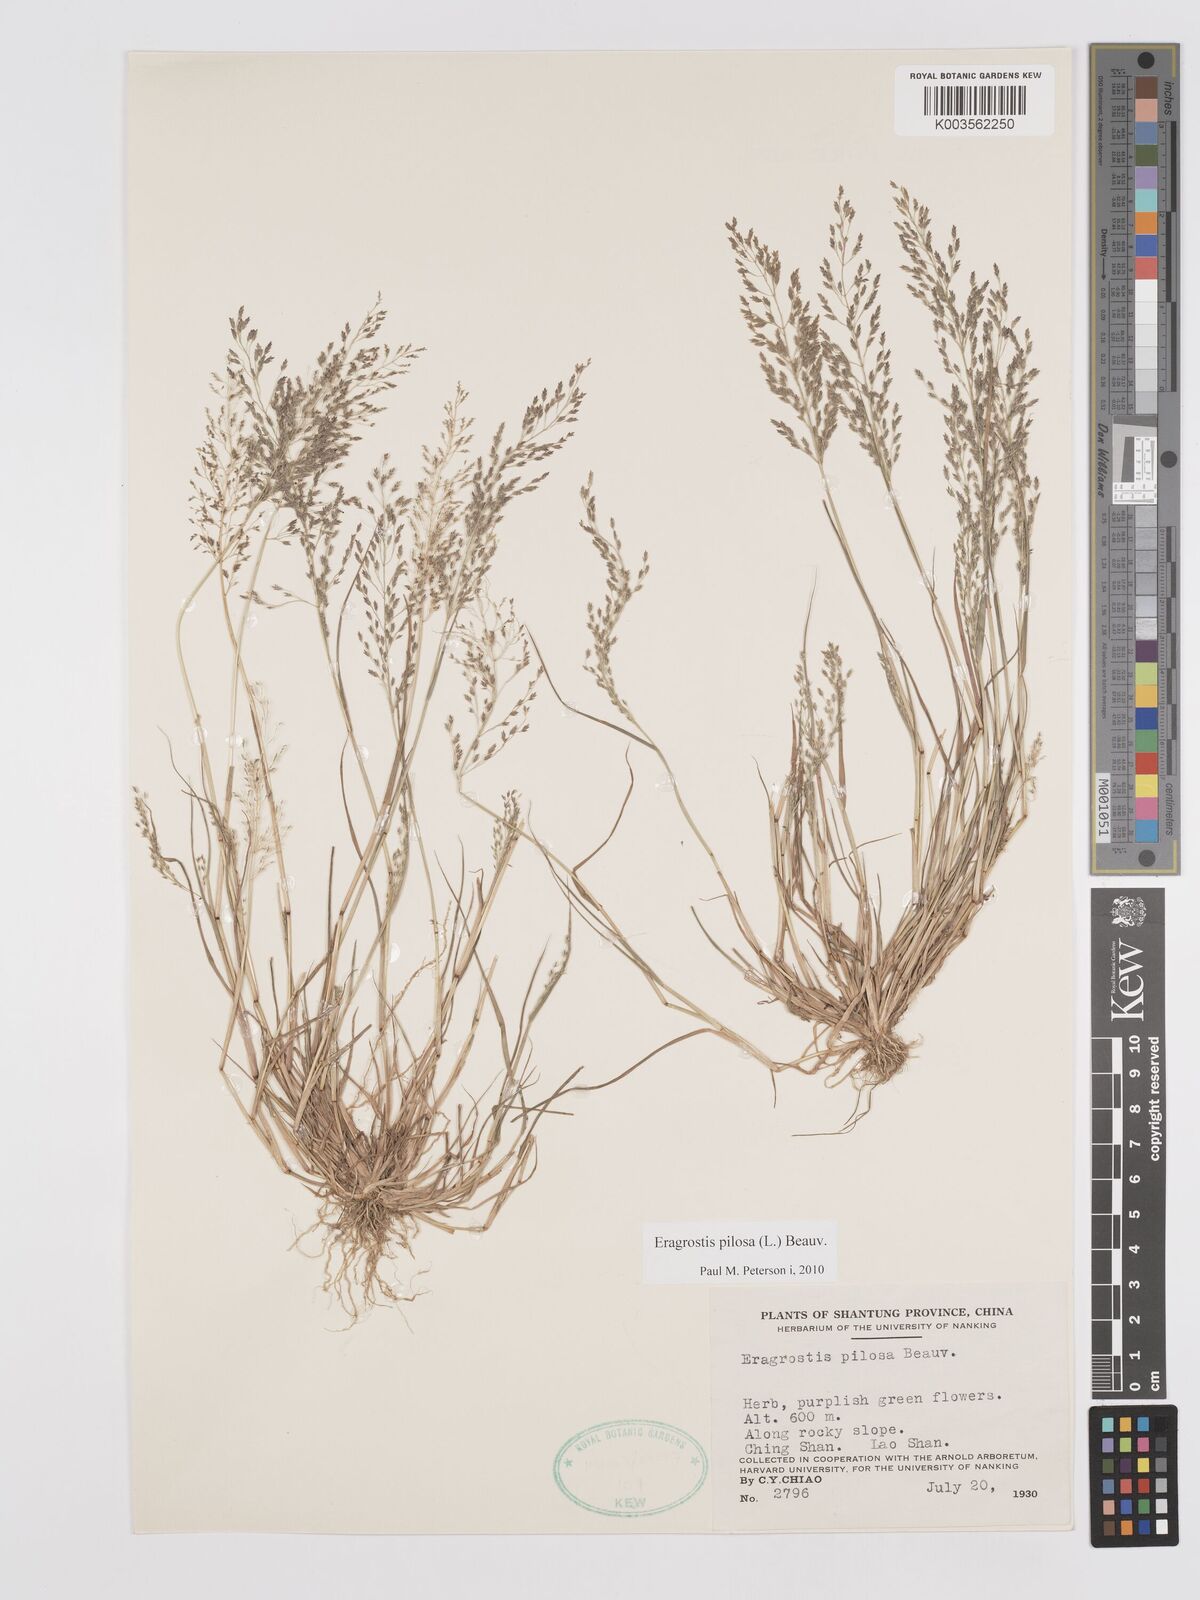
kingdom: Plantae
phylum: Tracheophyta
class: Liliopsida
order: Poales
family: Poaceae
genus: Eragrostis
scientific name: Eragrostis pilosa
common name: Indian lovegrass
